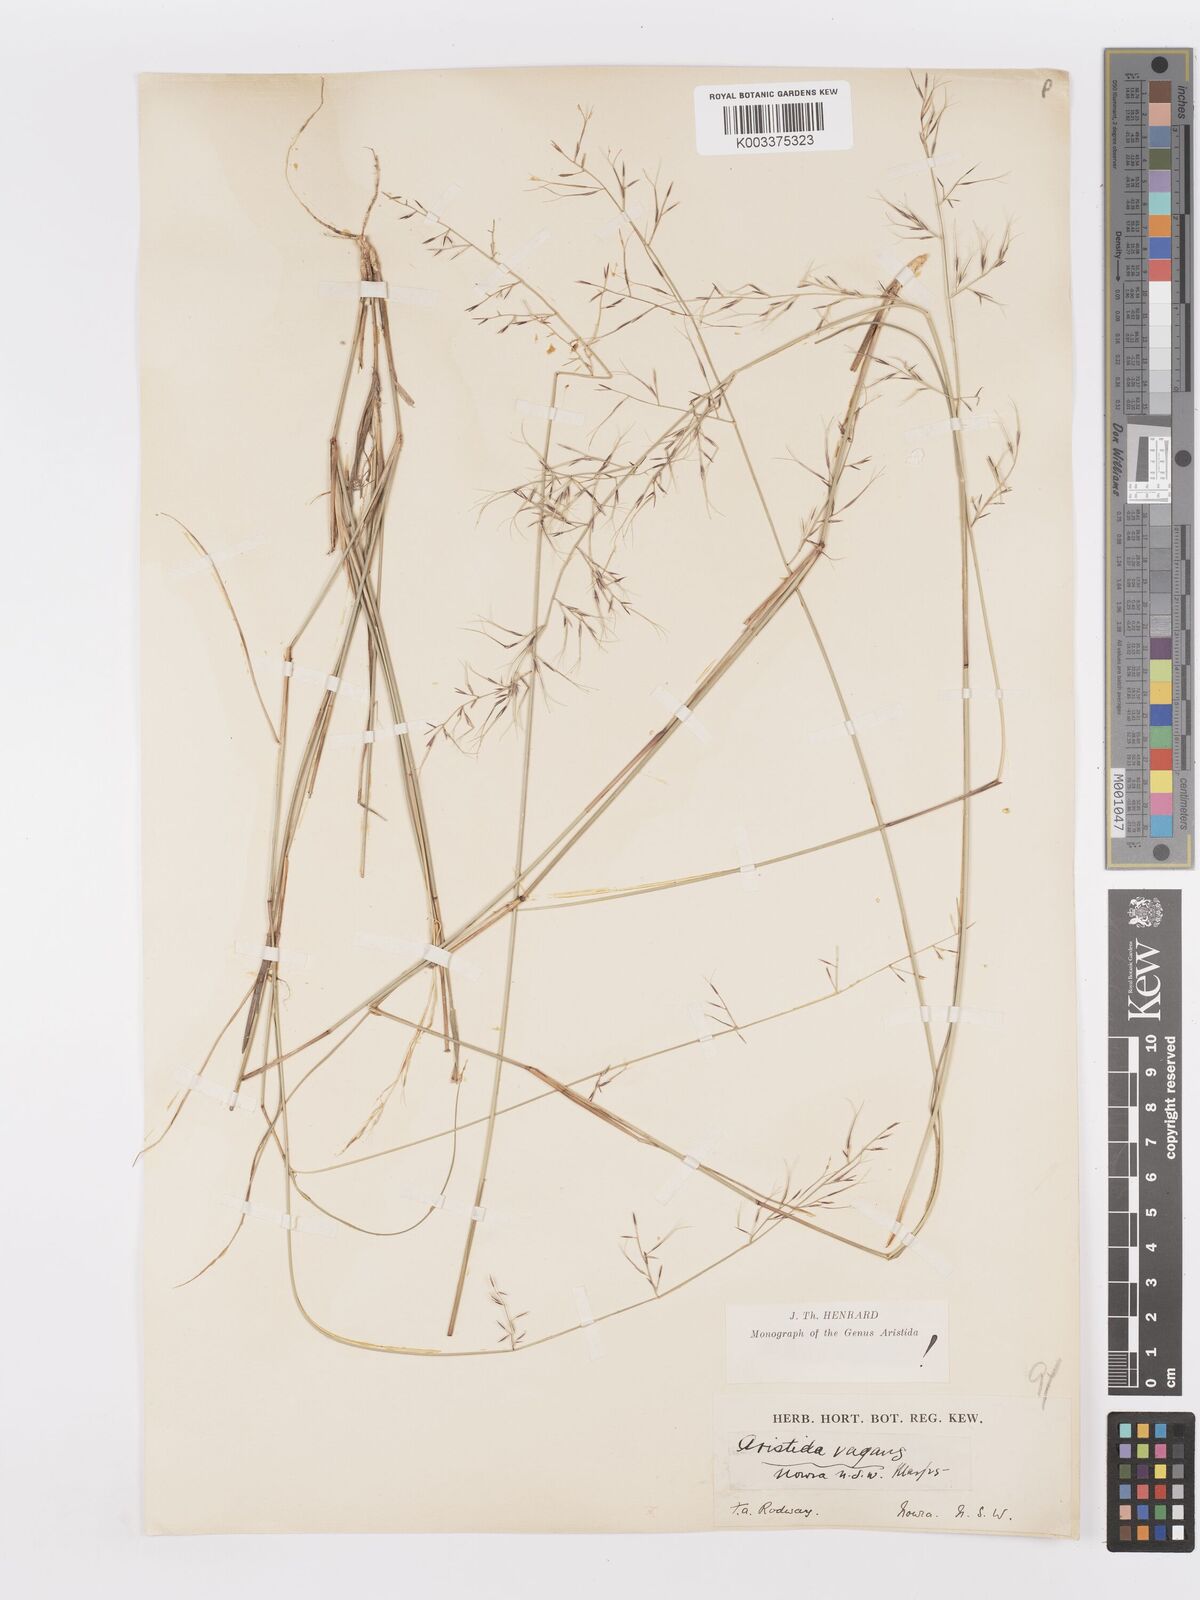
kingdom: Plantae
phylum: Tracheophyta
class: Liliopsida
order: Poales
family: Poaceae
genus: Aristida
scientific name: Aristida vagans
